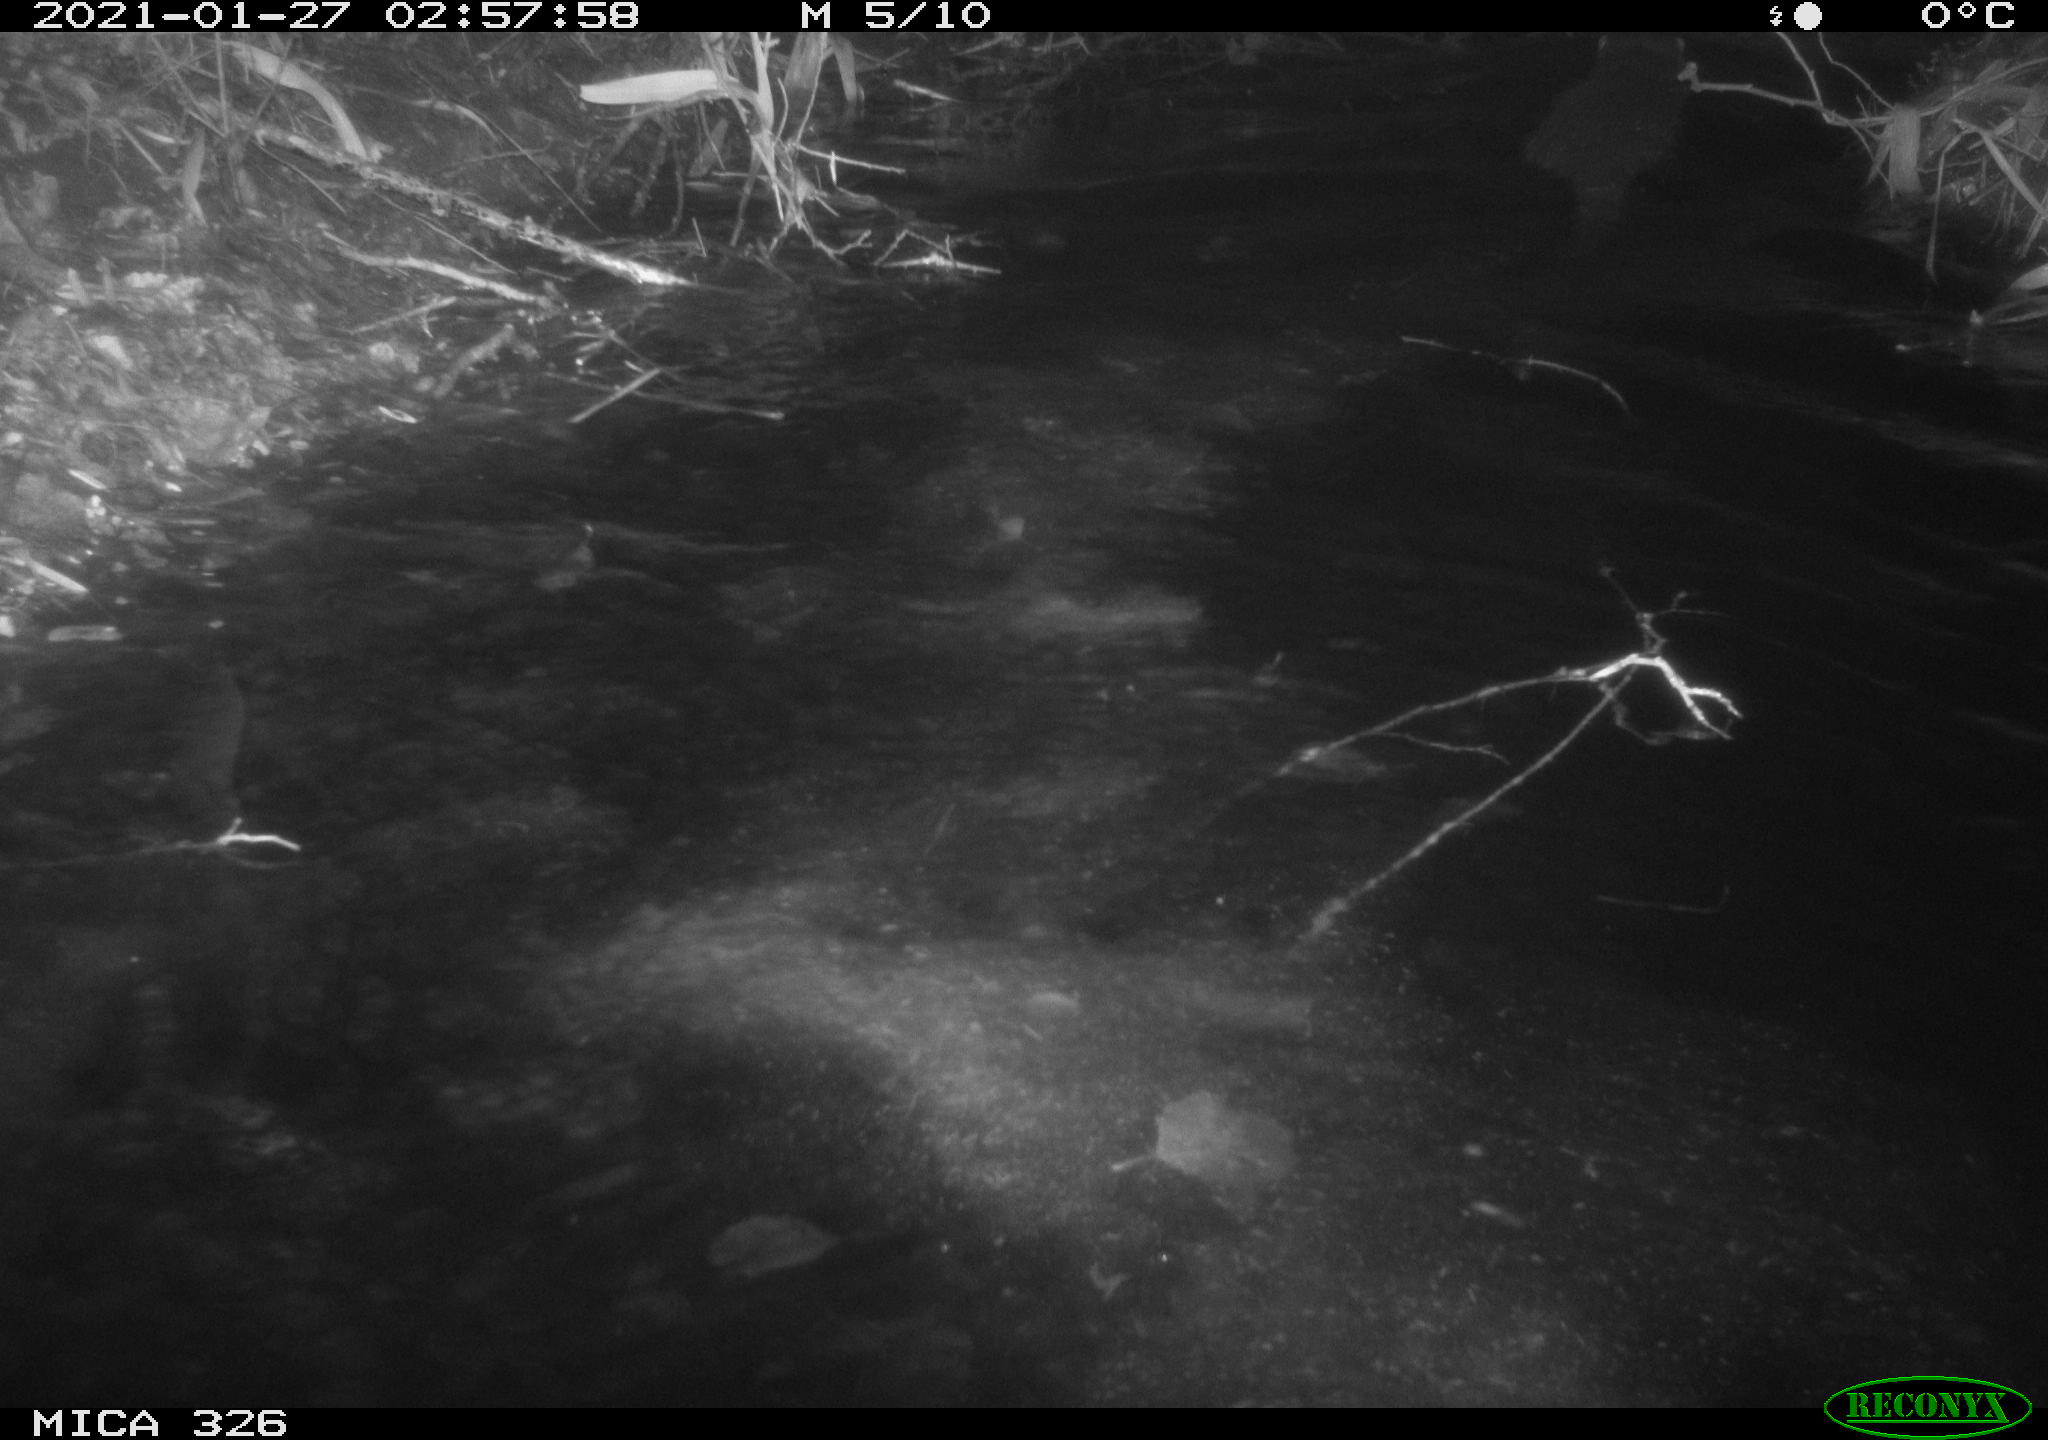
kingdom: Animalia
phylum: Chordata
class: Mammalia
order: Carnivora
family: Mustelidae
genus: Lutra
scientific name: Lutra lutra
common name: European otter
